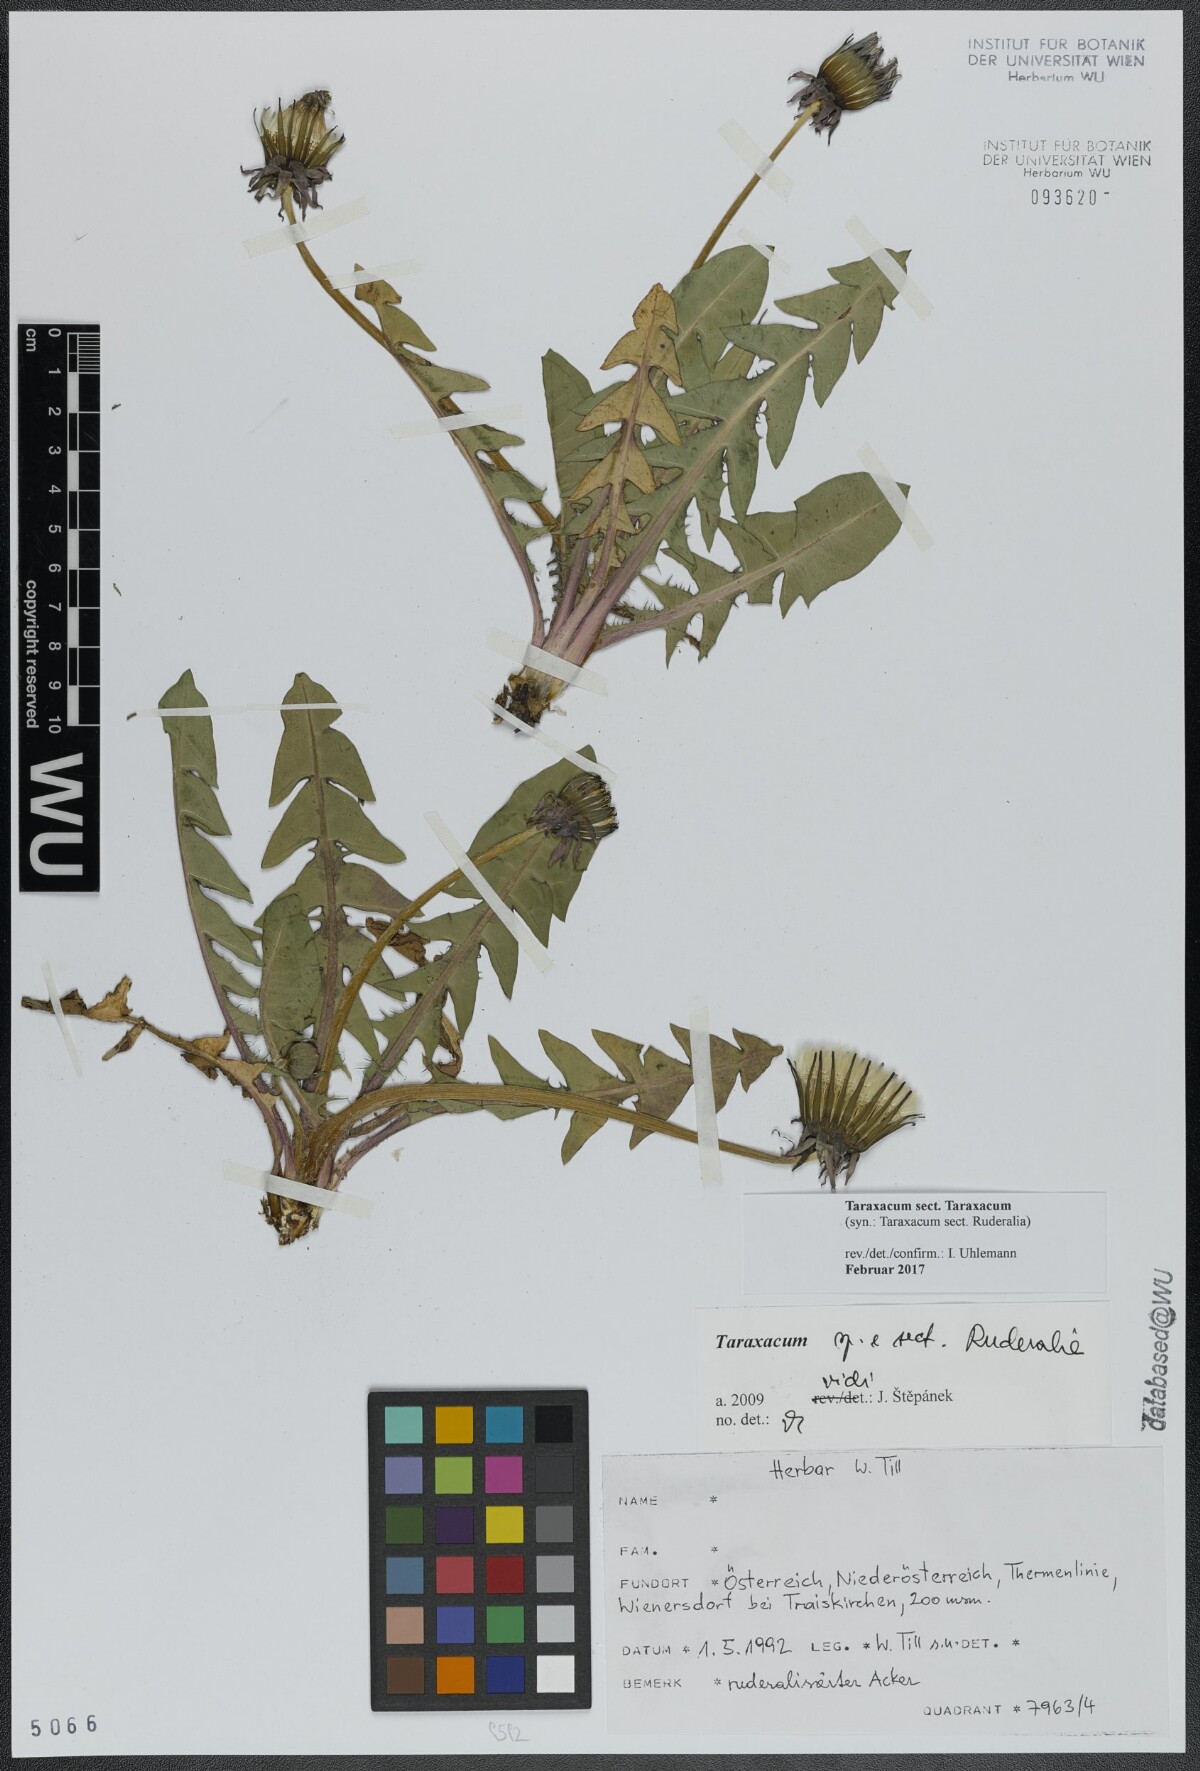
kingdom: Plantae
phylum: Tracheophyta
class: Magnoliopsida
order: Asterales
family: Asteraceae
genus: Taraxacum
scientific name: Taraxacum
